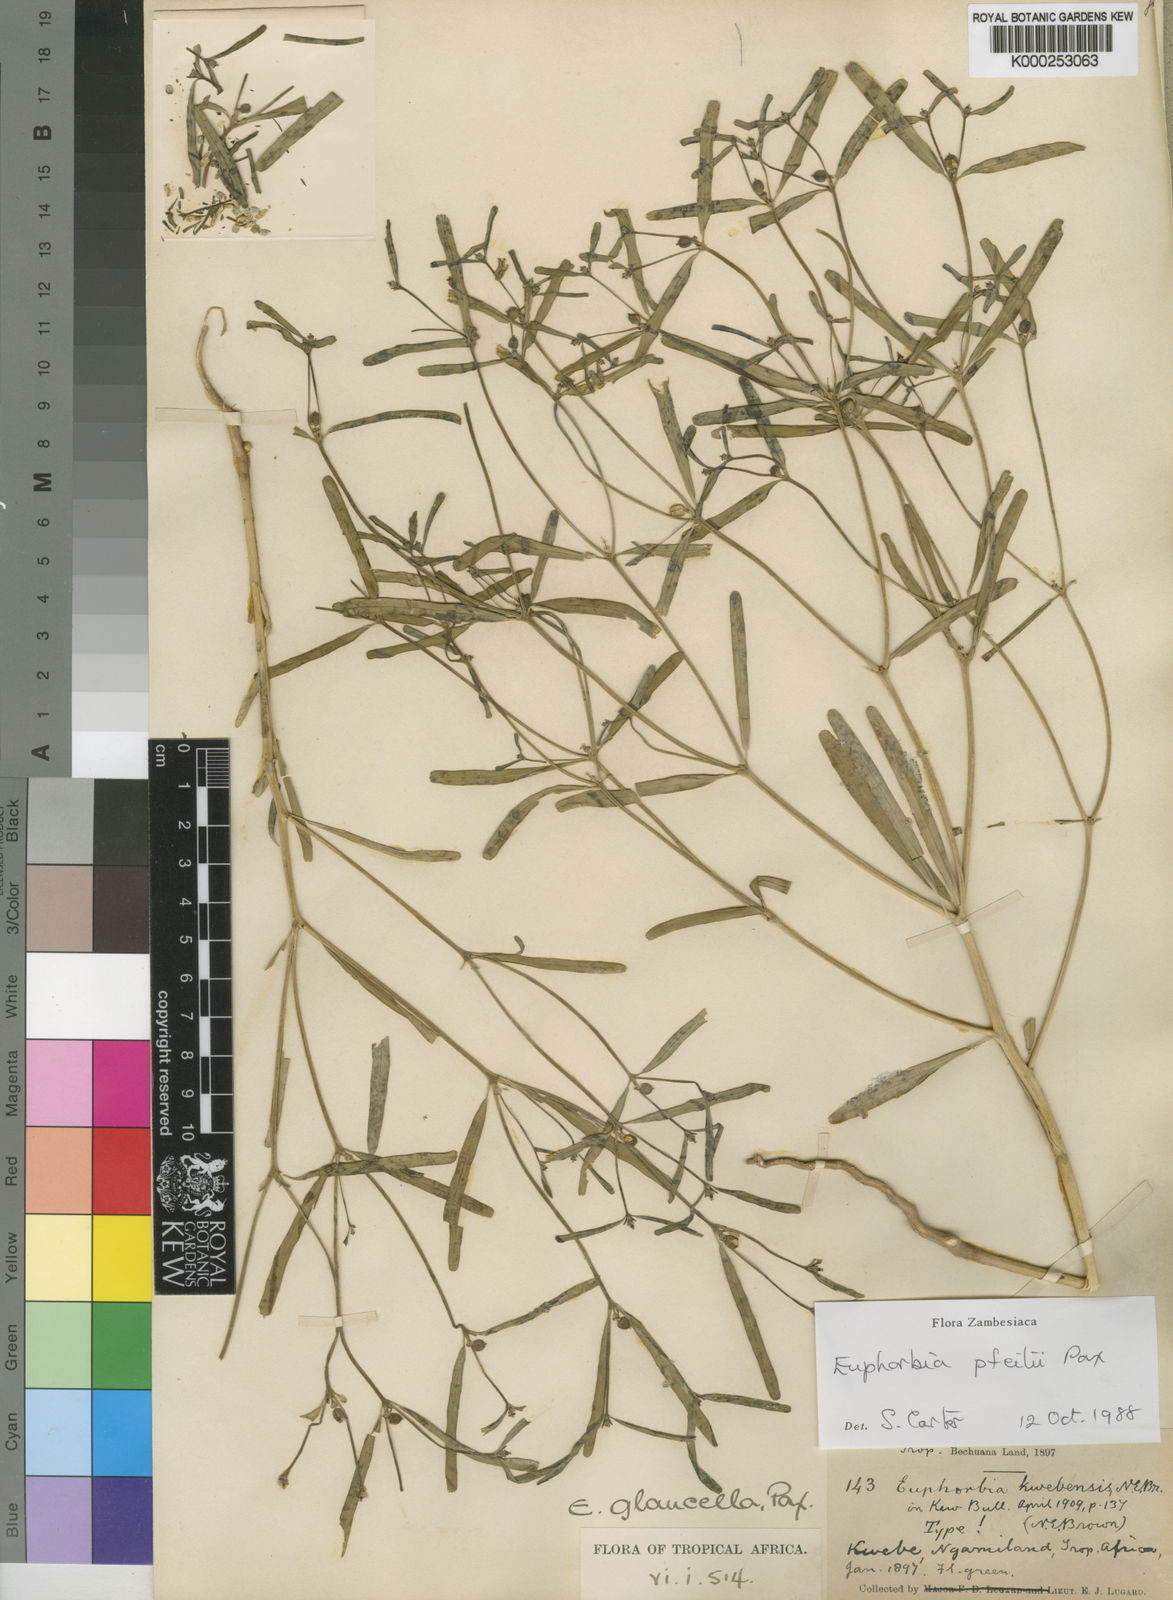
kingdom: Plantae
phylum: Tracheophyta
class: Magnoliopsida
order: Malpighiales
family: Euphorbiaceae
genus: Euphorbia
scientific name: Euphorbia glanduligera
